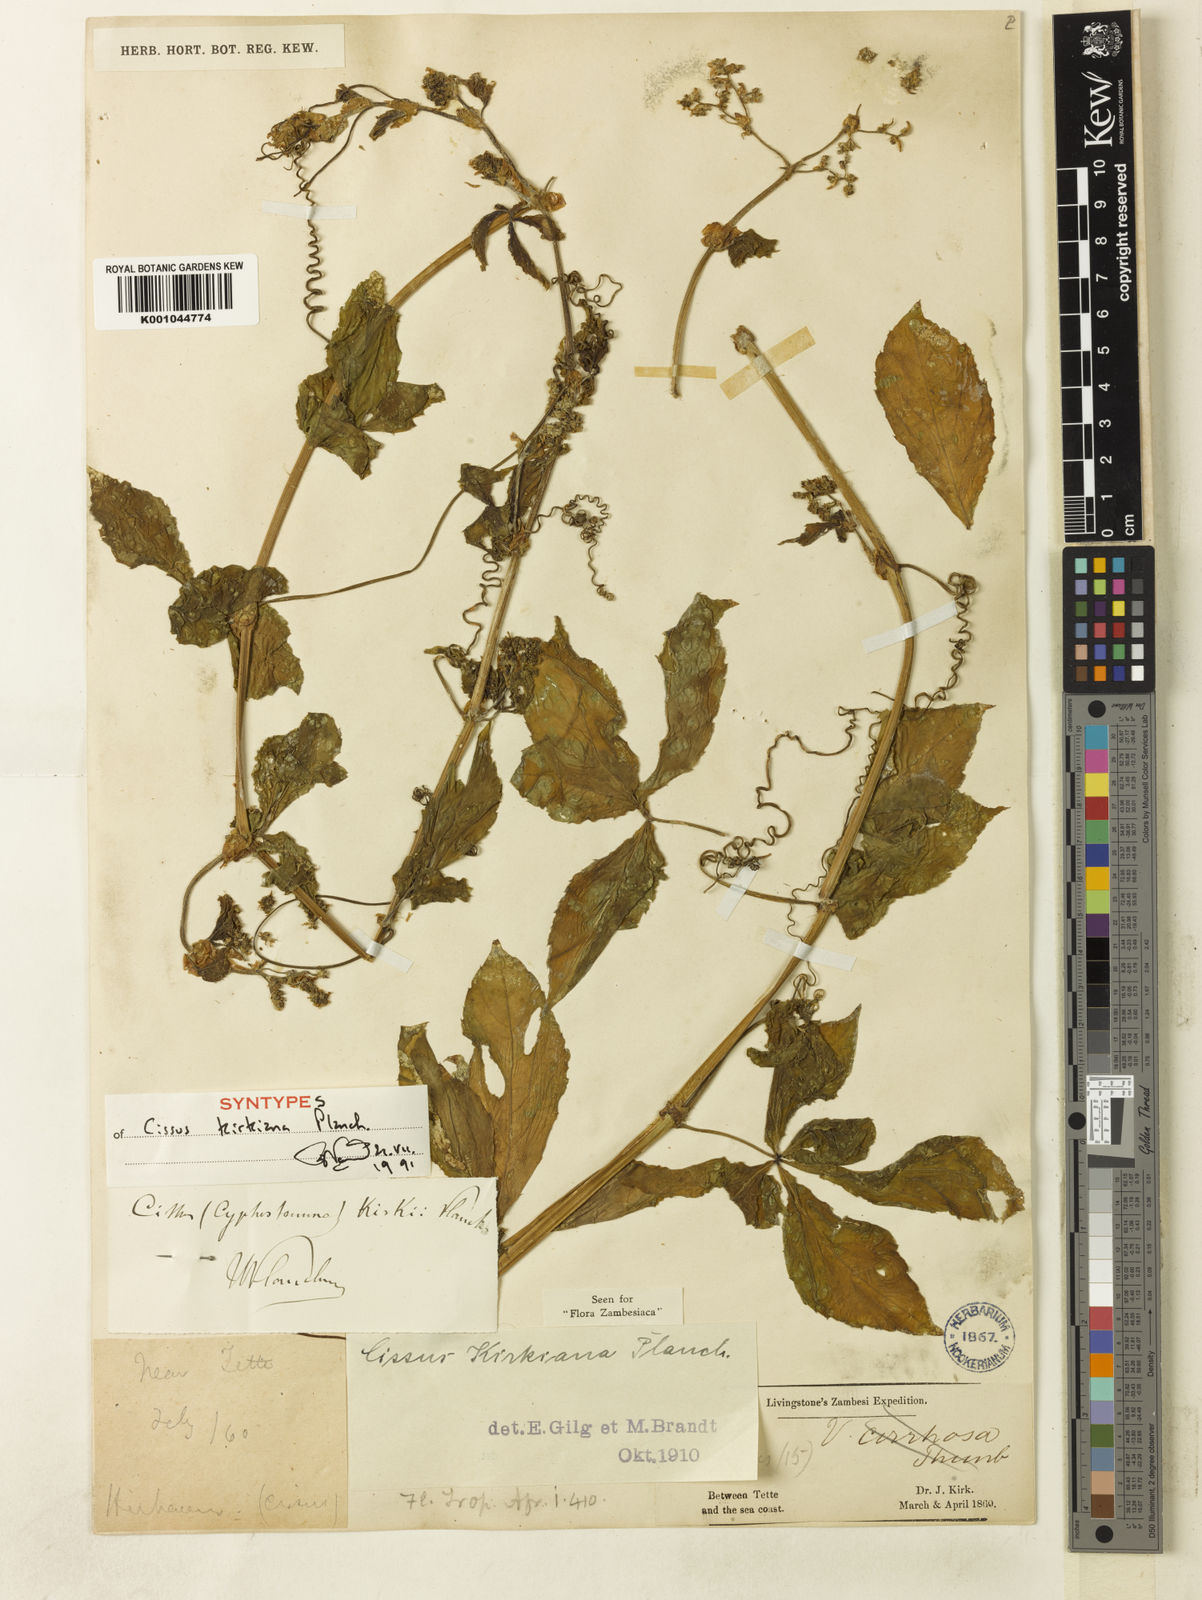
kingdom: Plantae
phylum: Tracheophyta
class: Magnoliopsida
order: Vitales
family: Vitaceae
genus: Cyphostemma
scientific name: Cyphostemma kirkianum
